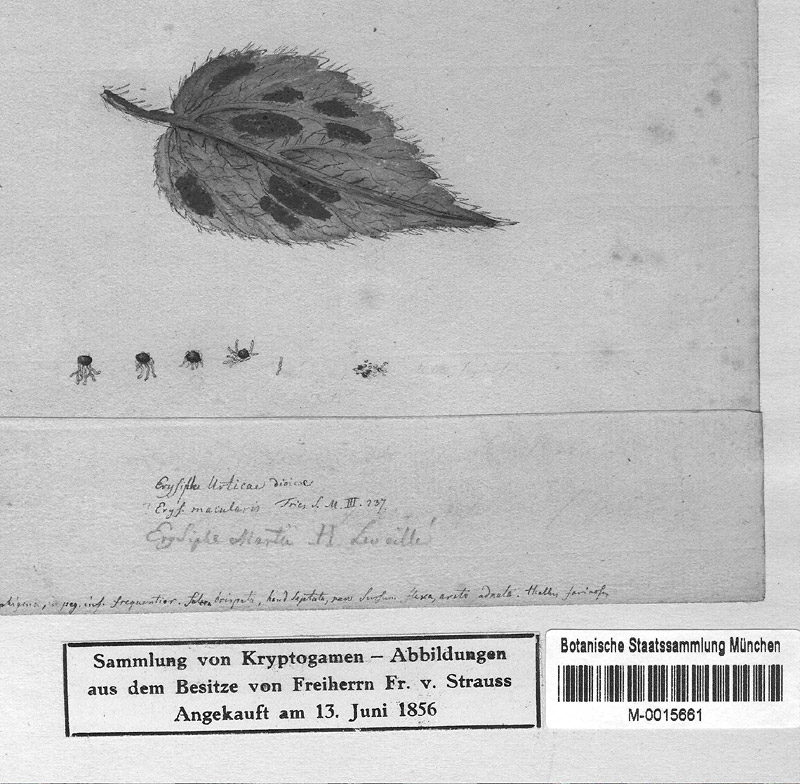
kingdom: Fungi
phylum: Ascomycota
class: Leotiomycetes
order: Helotiales
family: Erysiphaceae
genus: Erysiphe
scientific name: Erysiphe urticae
